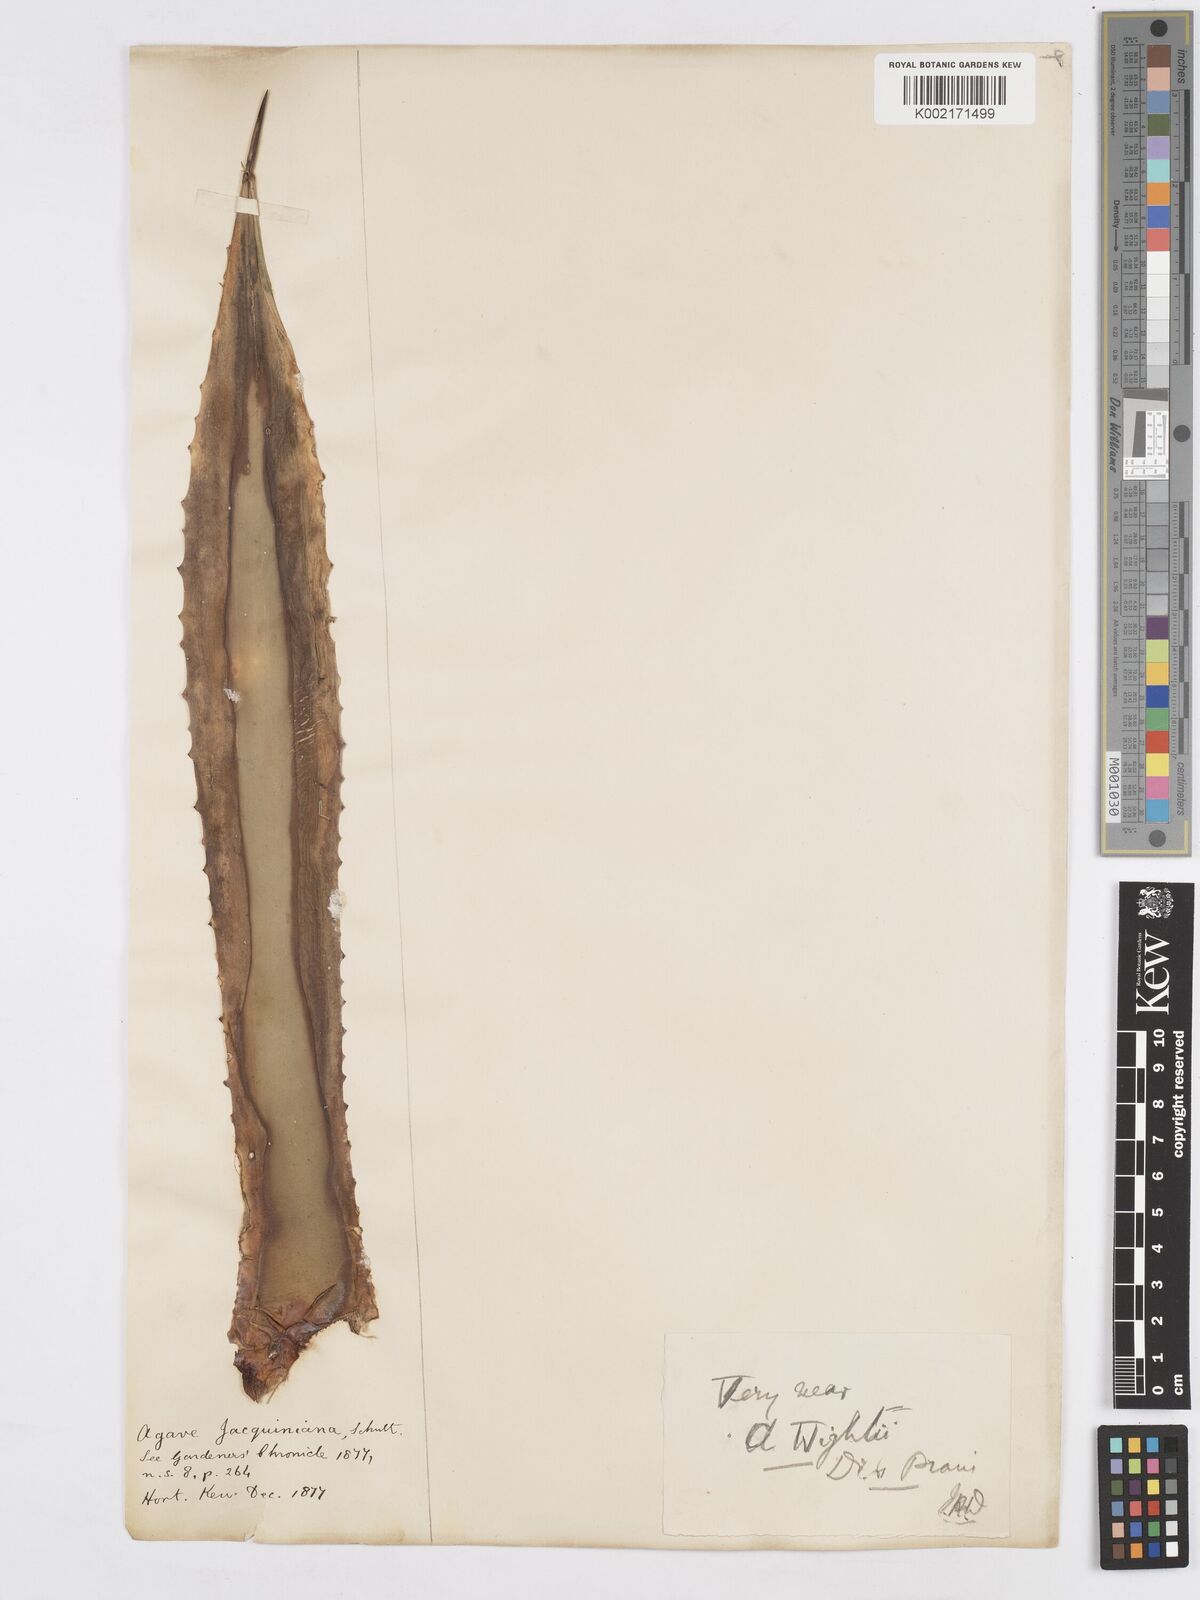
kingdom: Plantae
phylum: Tracheophyta
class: Liliopsida
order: Asparagales
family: Asparagaceae
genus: Agave
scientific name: Agave angustifolia
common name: Mescal agave
